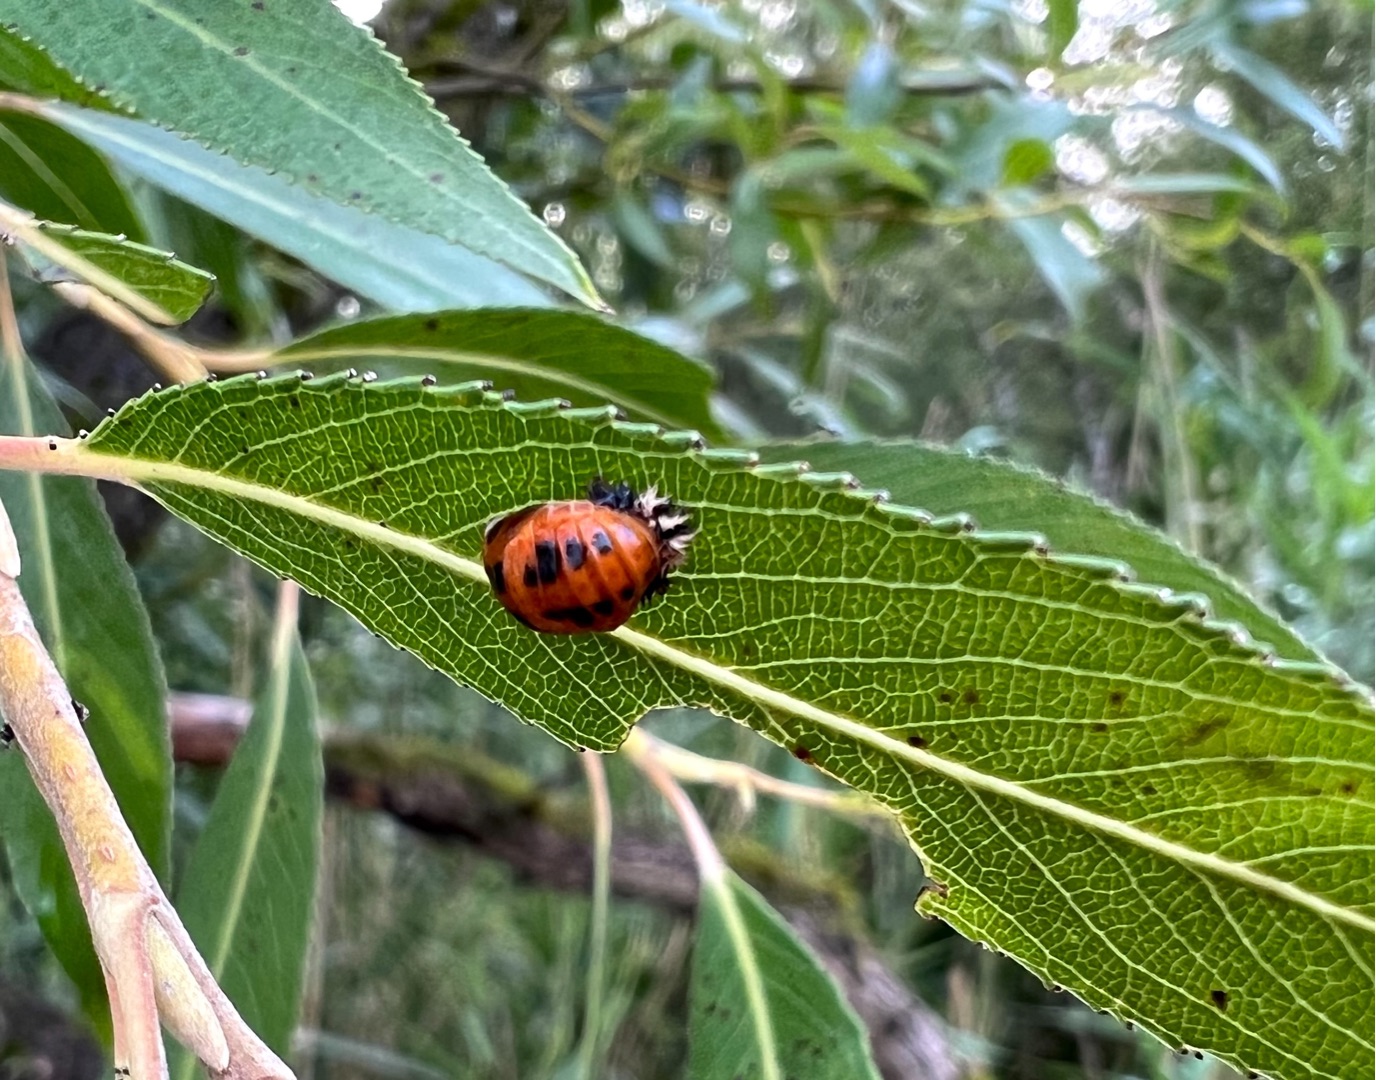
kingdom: Animalia
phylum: Arthropoda
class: Insecta
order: Coleoptera
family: Coccinellidae
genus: Harmonia
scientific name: Harmonia axyridis
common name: Harlekinmariehøne
